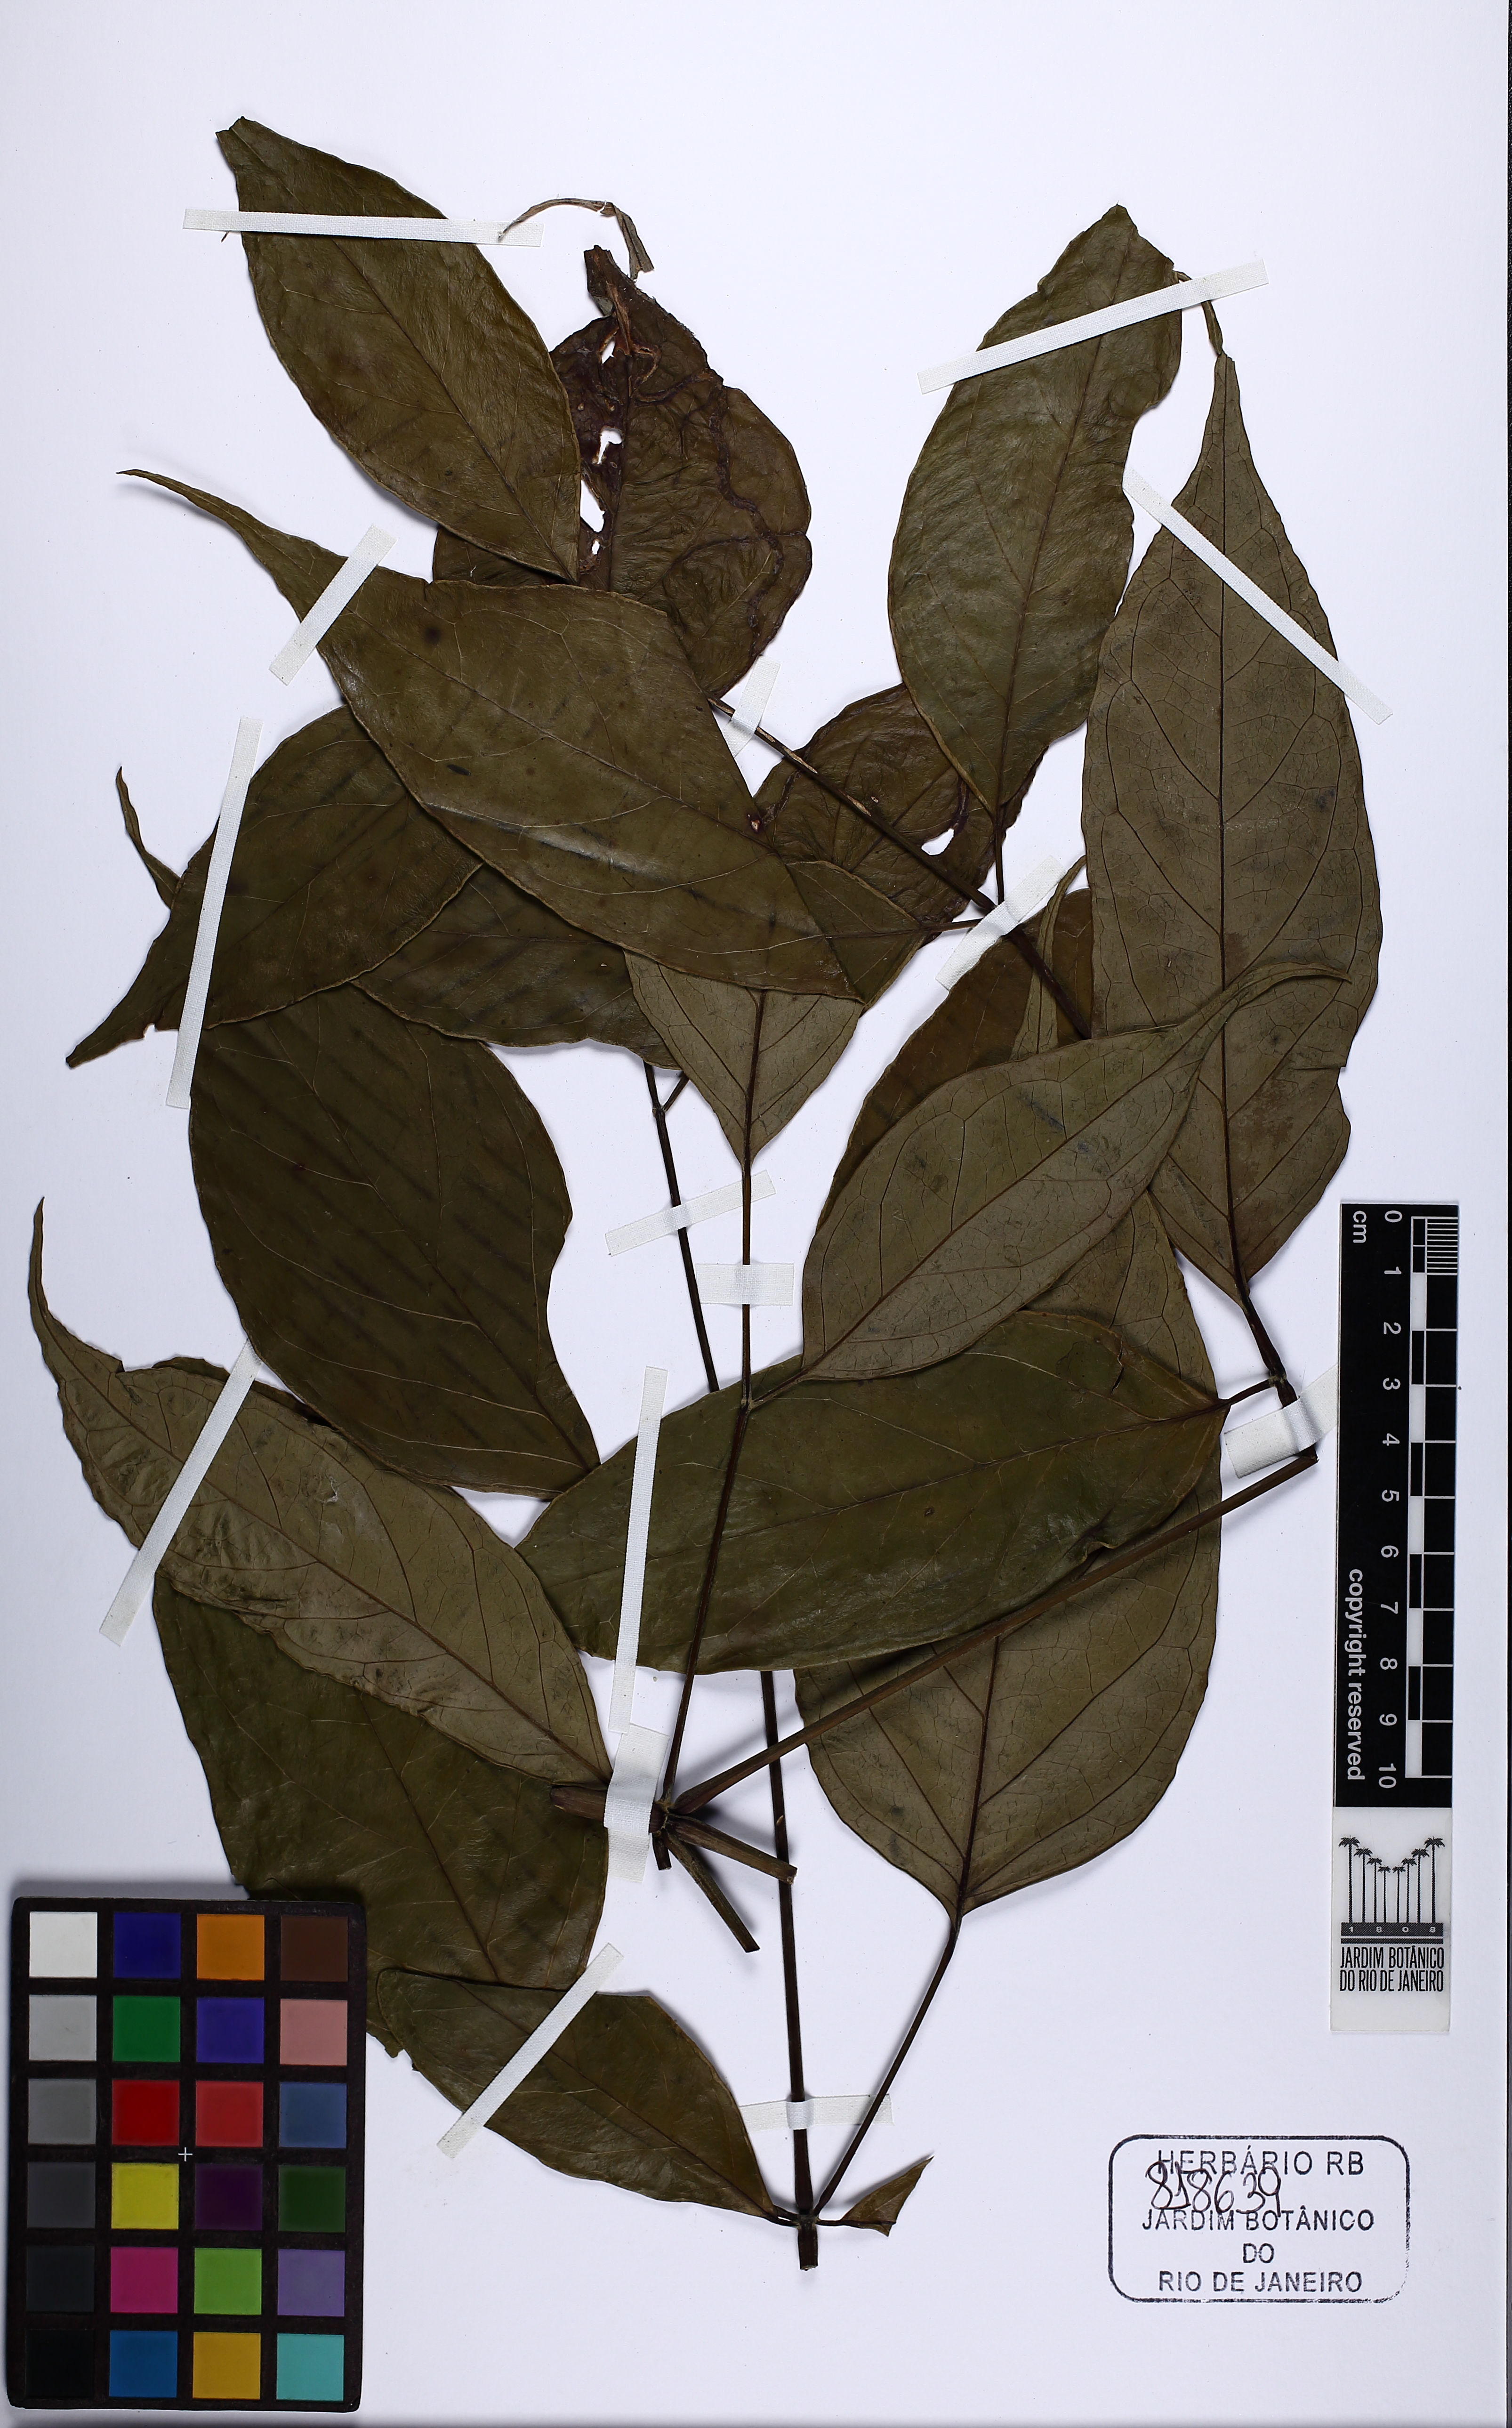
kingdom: Plantae
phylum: Tracheophyta
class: Magnoliopsida
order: Apiales
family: Araliaceae
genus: Didymopanax
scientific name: Didymopanax plurifolius
